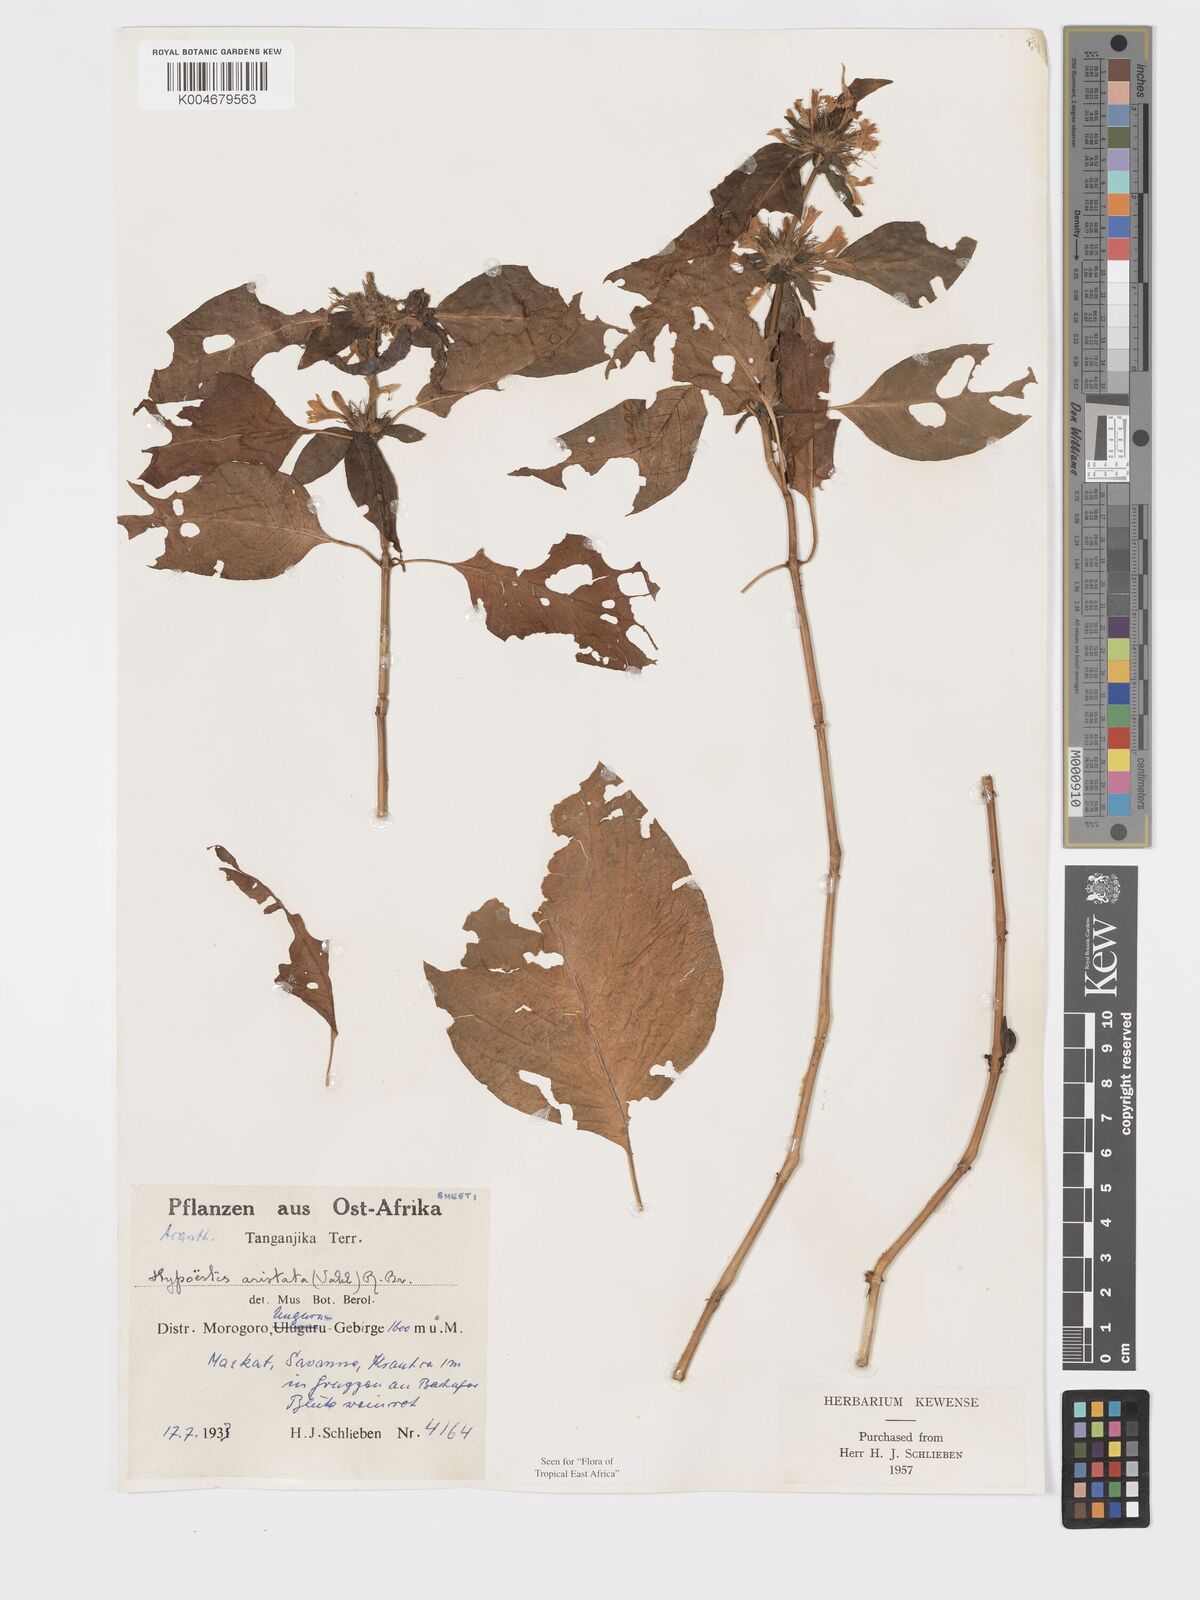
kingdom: Plantae
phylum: Tracheophyta
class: Magnoliopsida
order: Lamiales
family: Acanthaceae
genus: Hypoestes
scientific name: Hypoestes aristata
